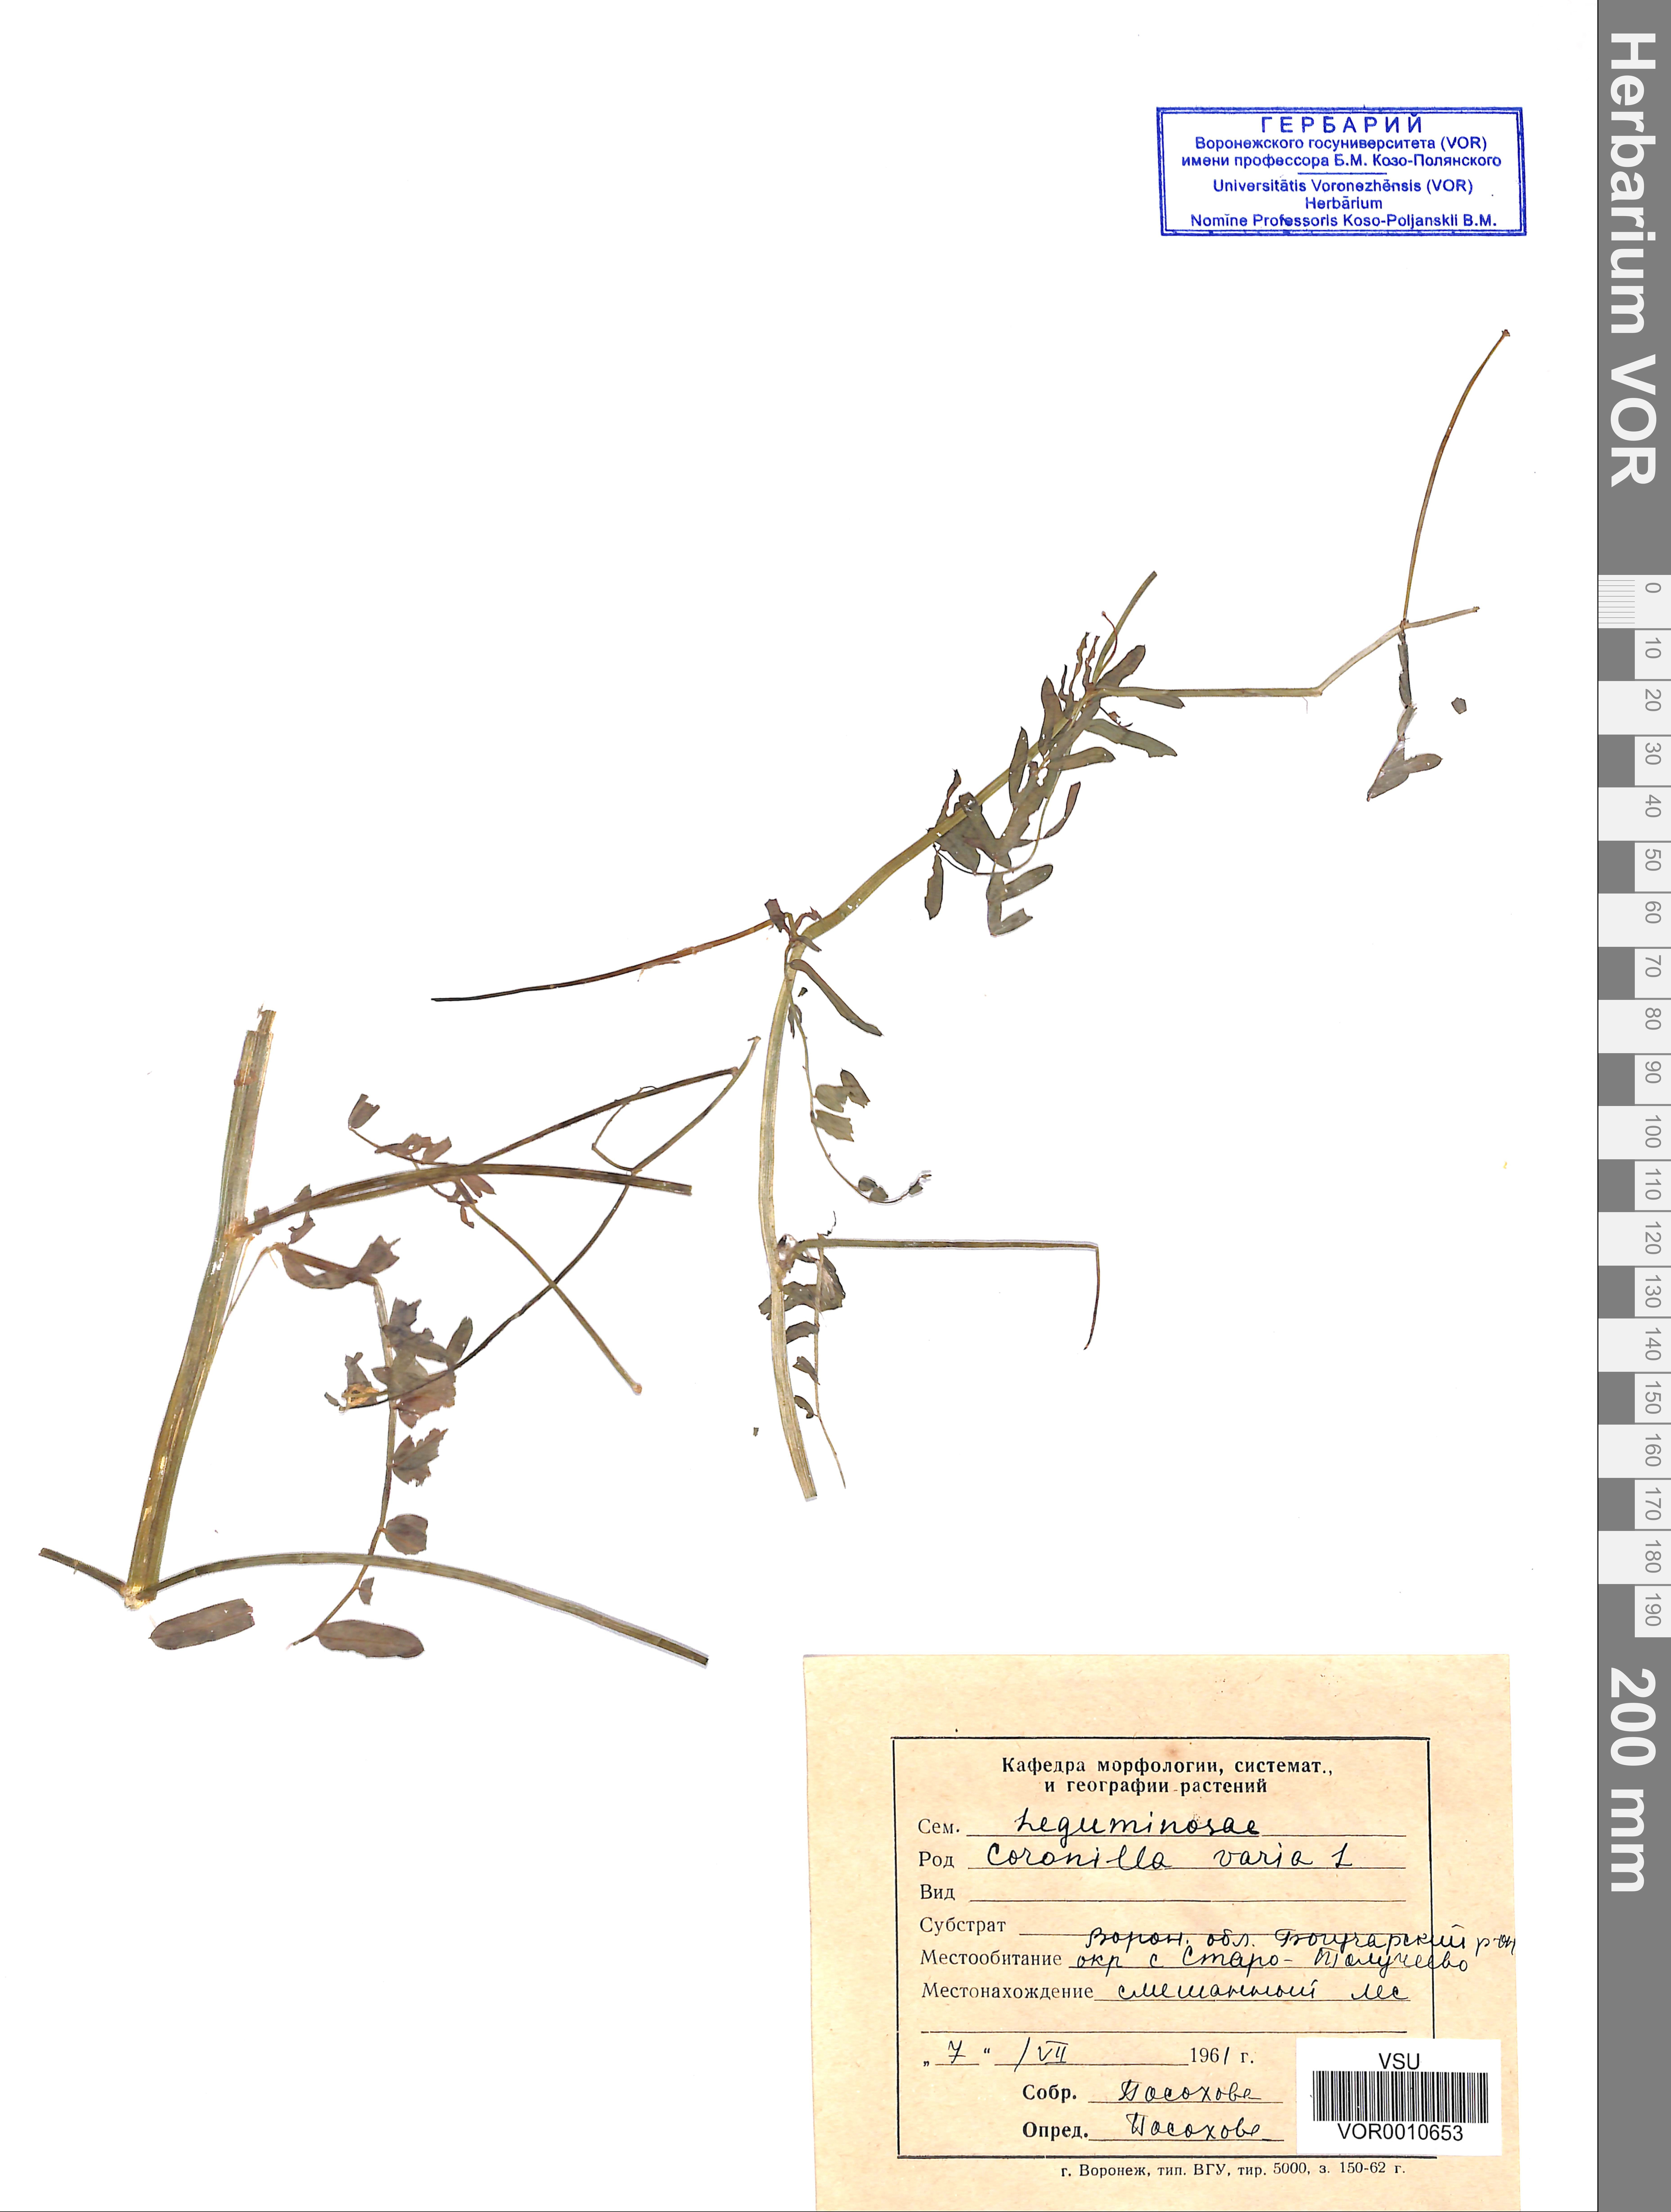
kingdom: Plantae
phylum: Tracheophyta
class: Magnoliopsida
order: Fabales
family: Fabaceae
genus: Coronilla
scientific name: Coronilla varia
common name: Crownvetch
